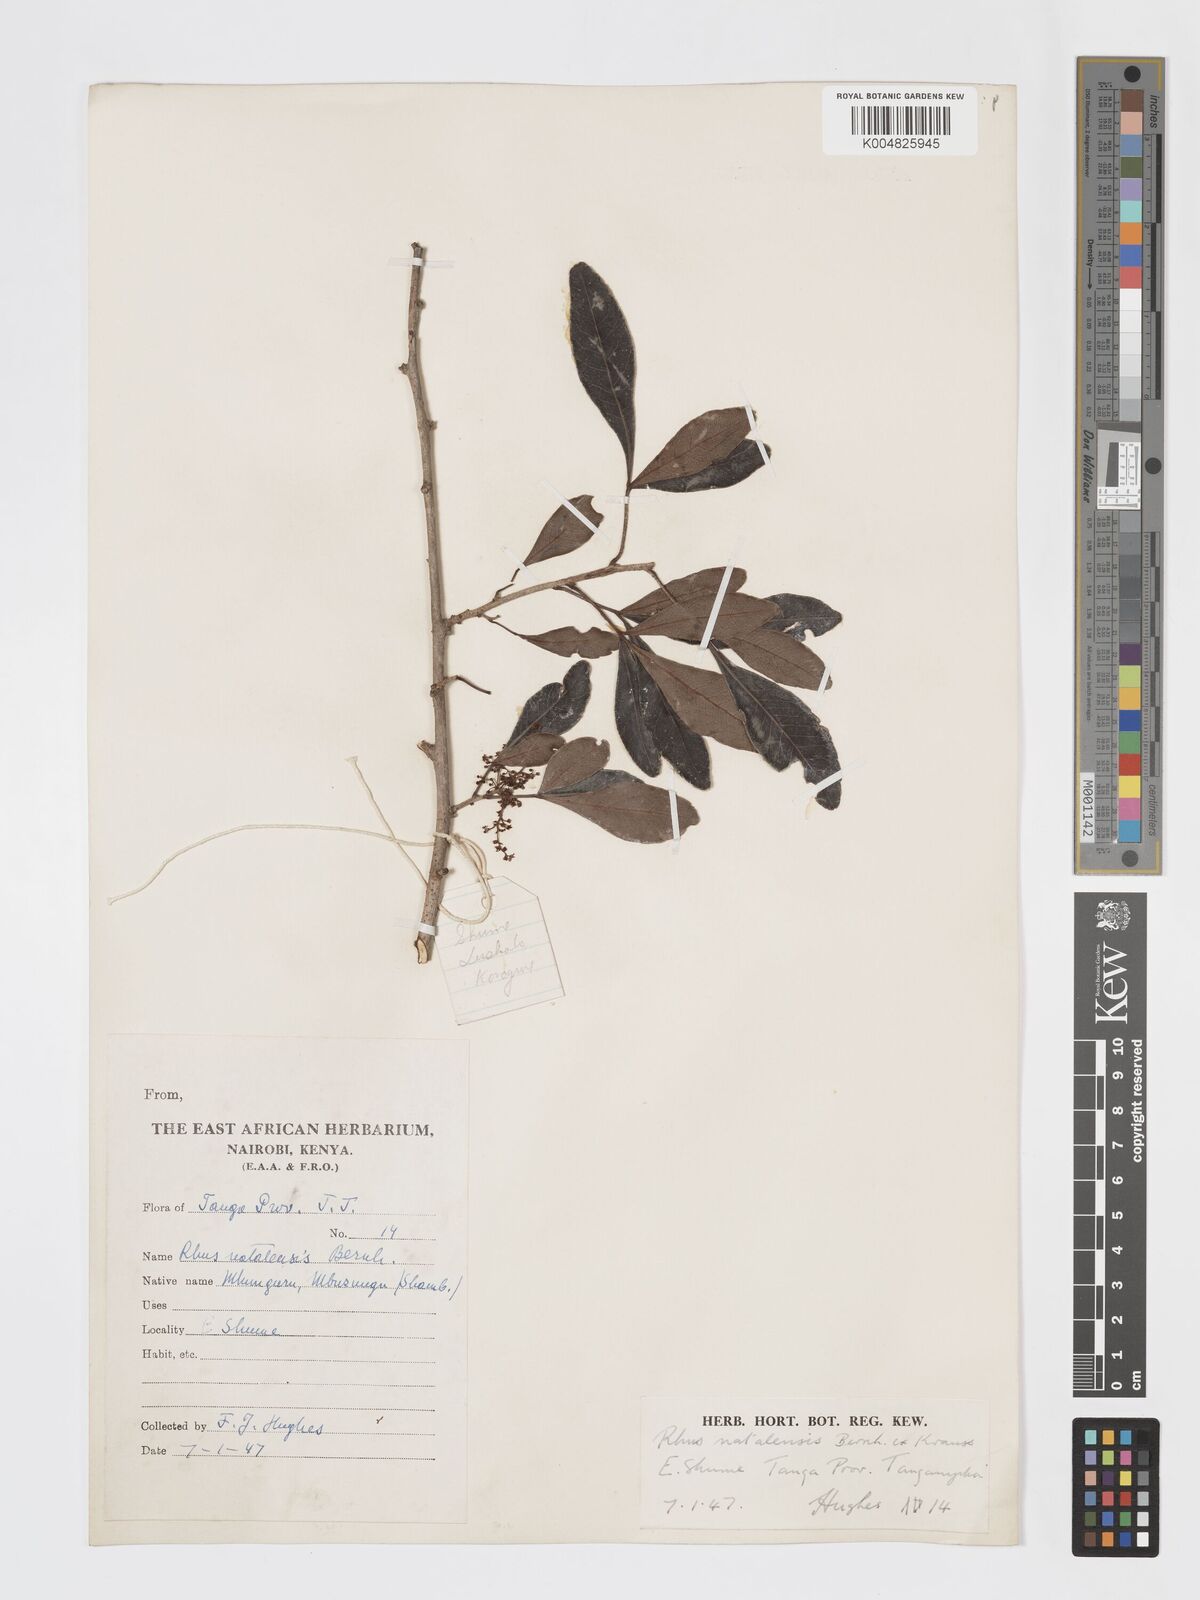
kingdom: Plantae
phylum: Tracheophyta
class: Magnoliopsida
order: Sapindales
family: Anacardiaceae
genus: Searsia
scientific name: Searsia natalensis
